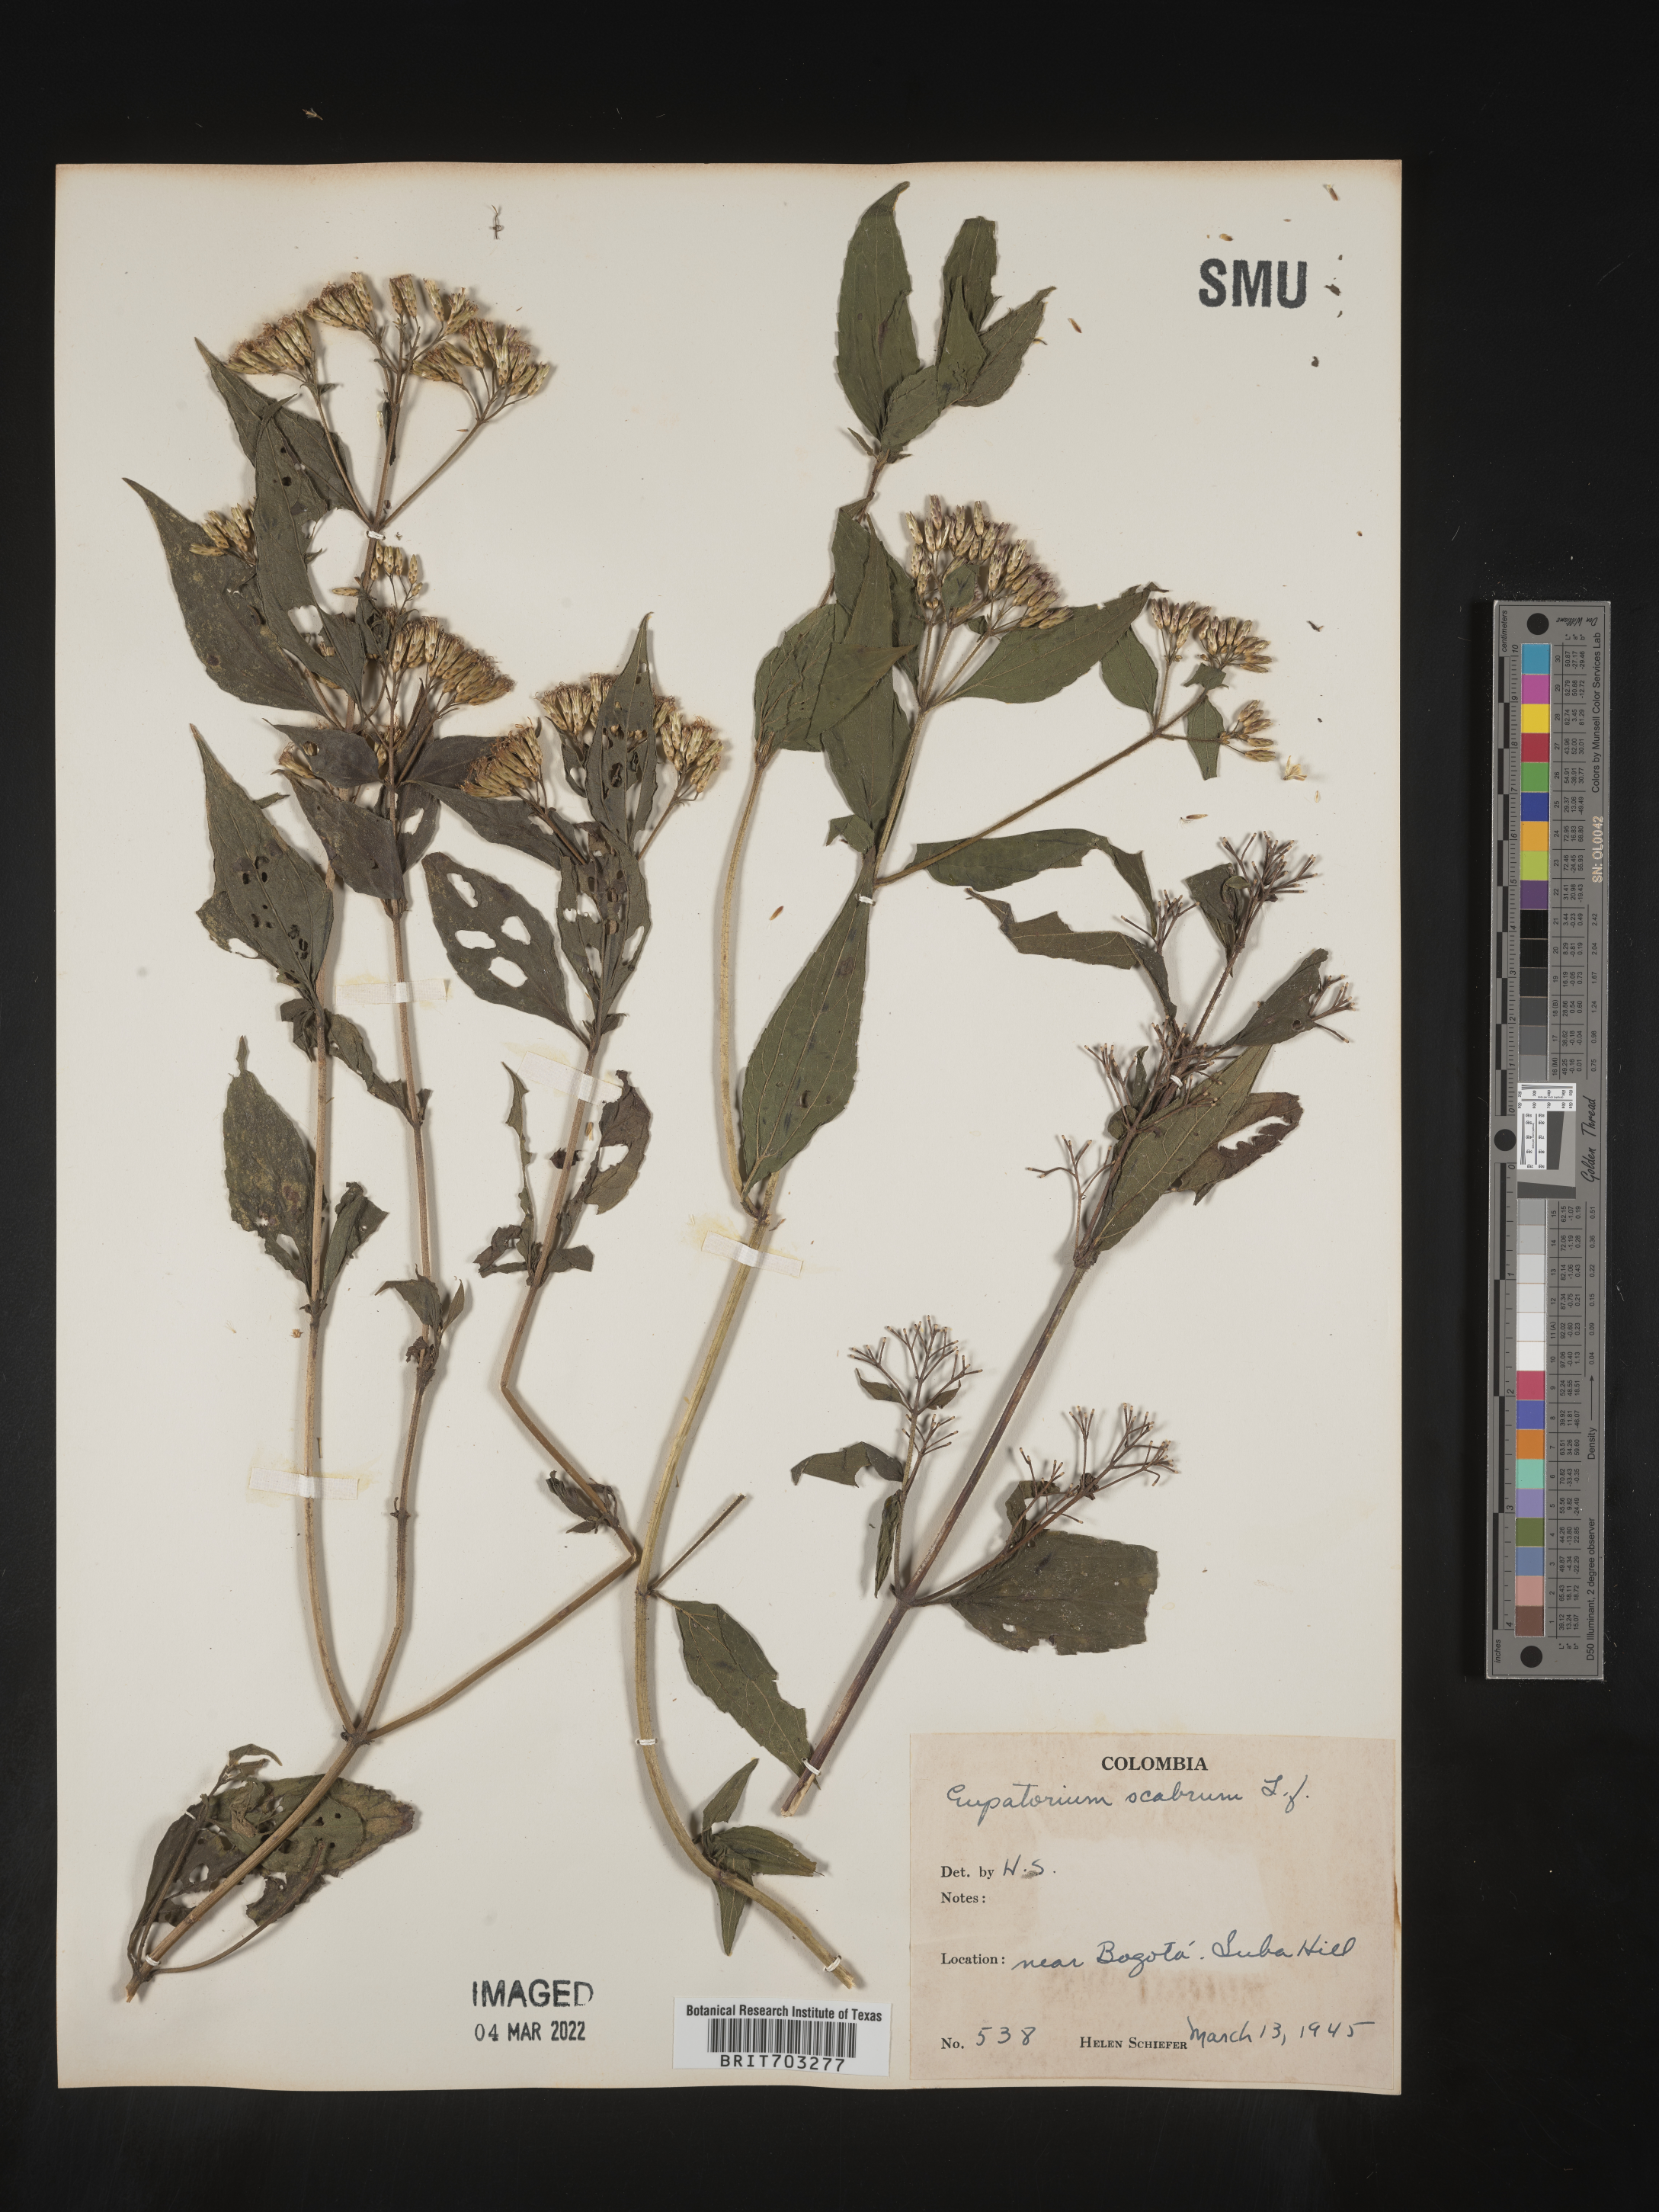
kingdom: Plantae
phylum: Tracheophyta
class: Magnoliopsida
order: Asterales
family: Asteraceae
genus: Eupatorium
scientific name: Eupatorium
